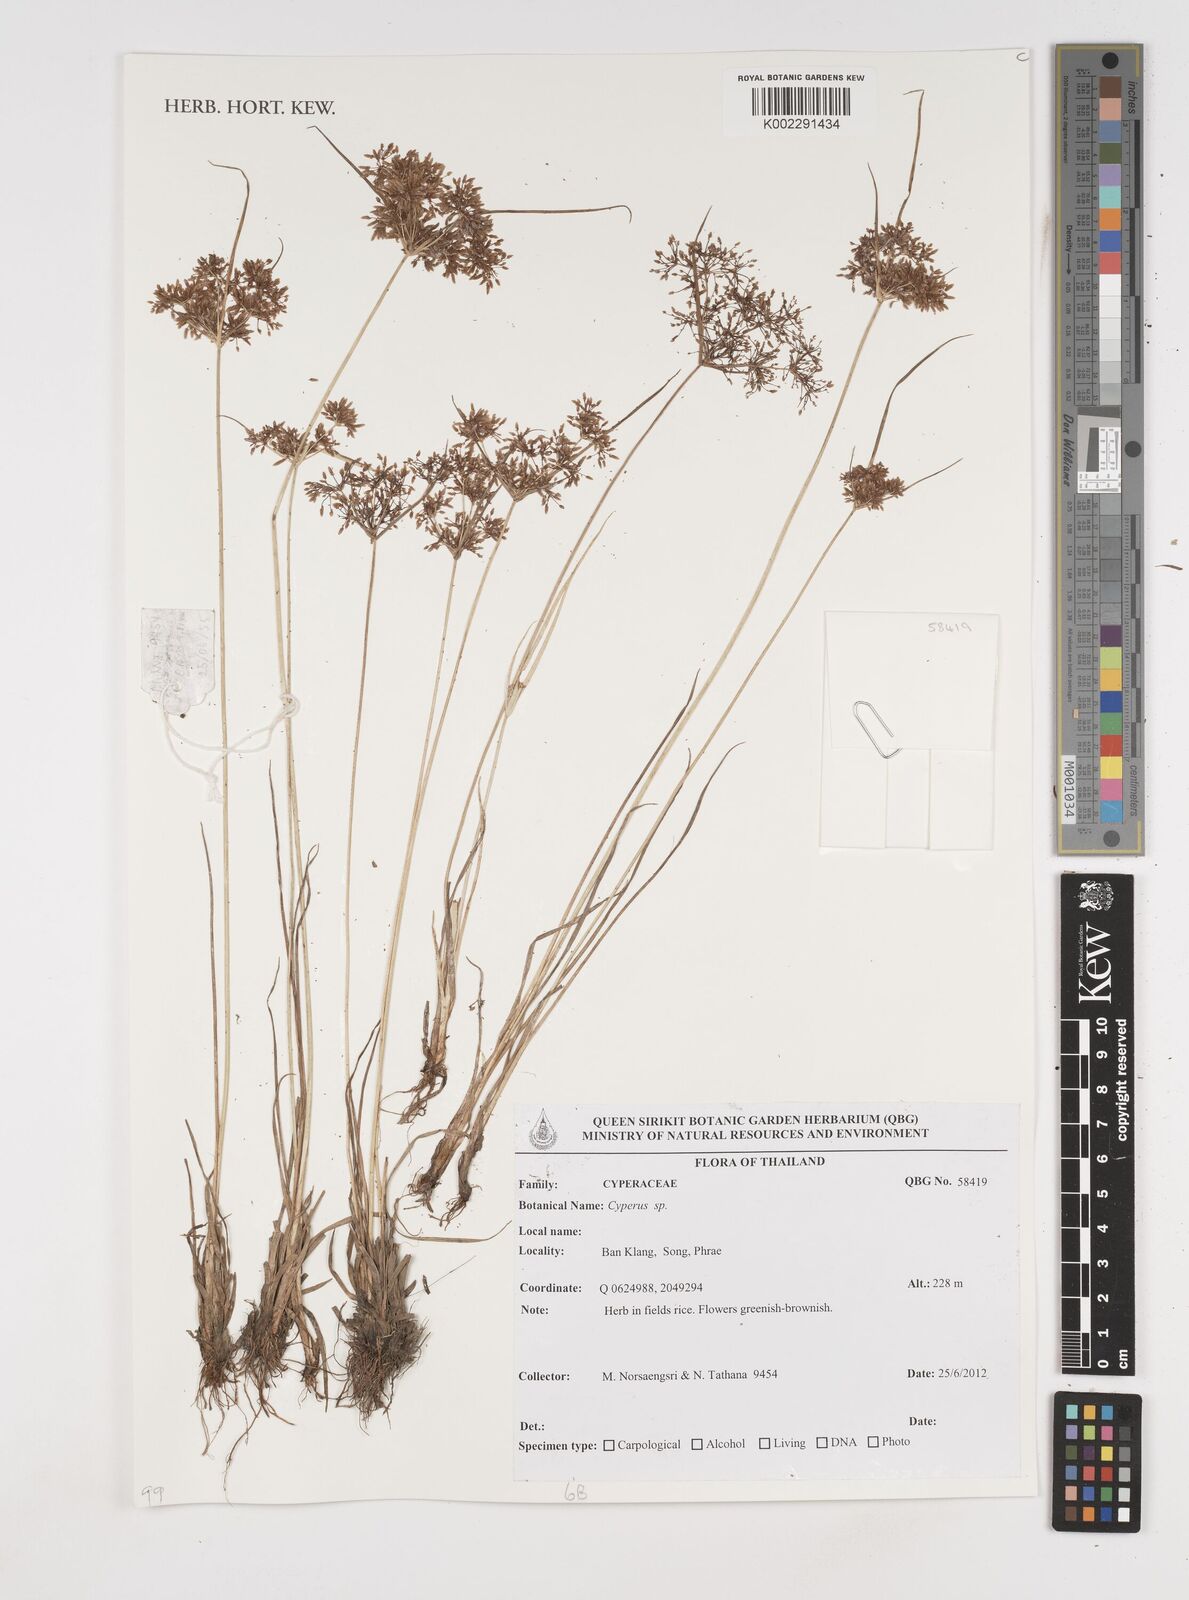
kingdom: Plantae
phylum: Tracheophyta
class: Liliopsida
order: Poales
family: Cyperaceae
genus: Cyperus
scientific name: Cyperus
